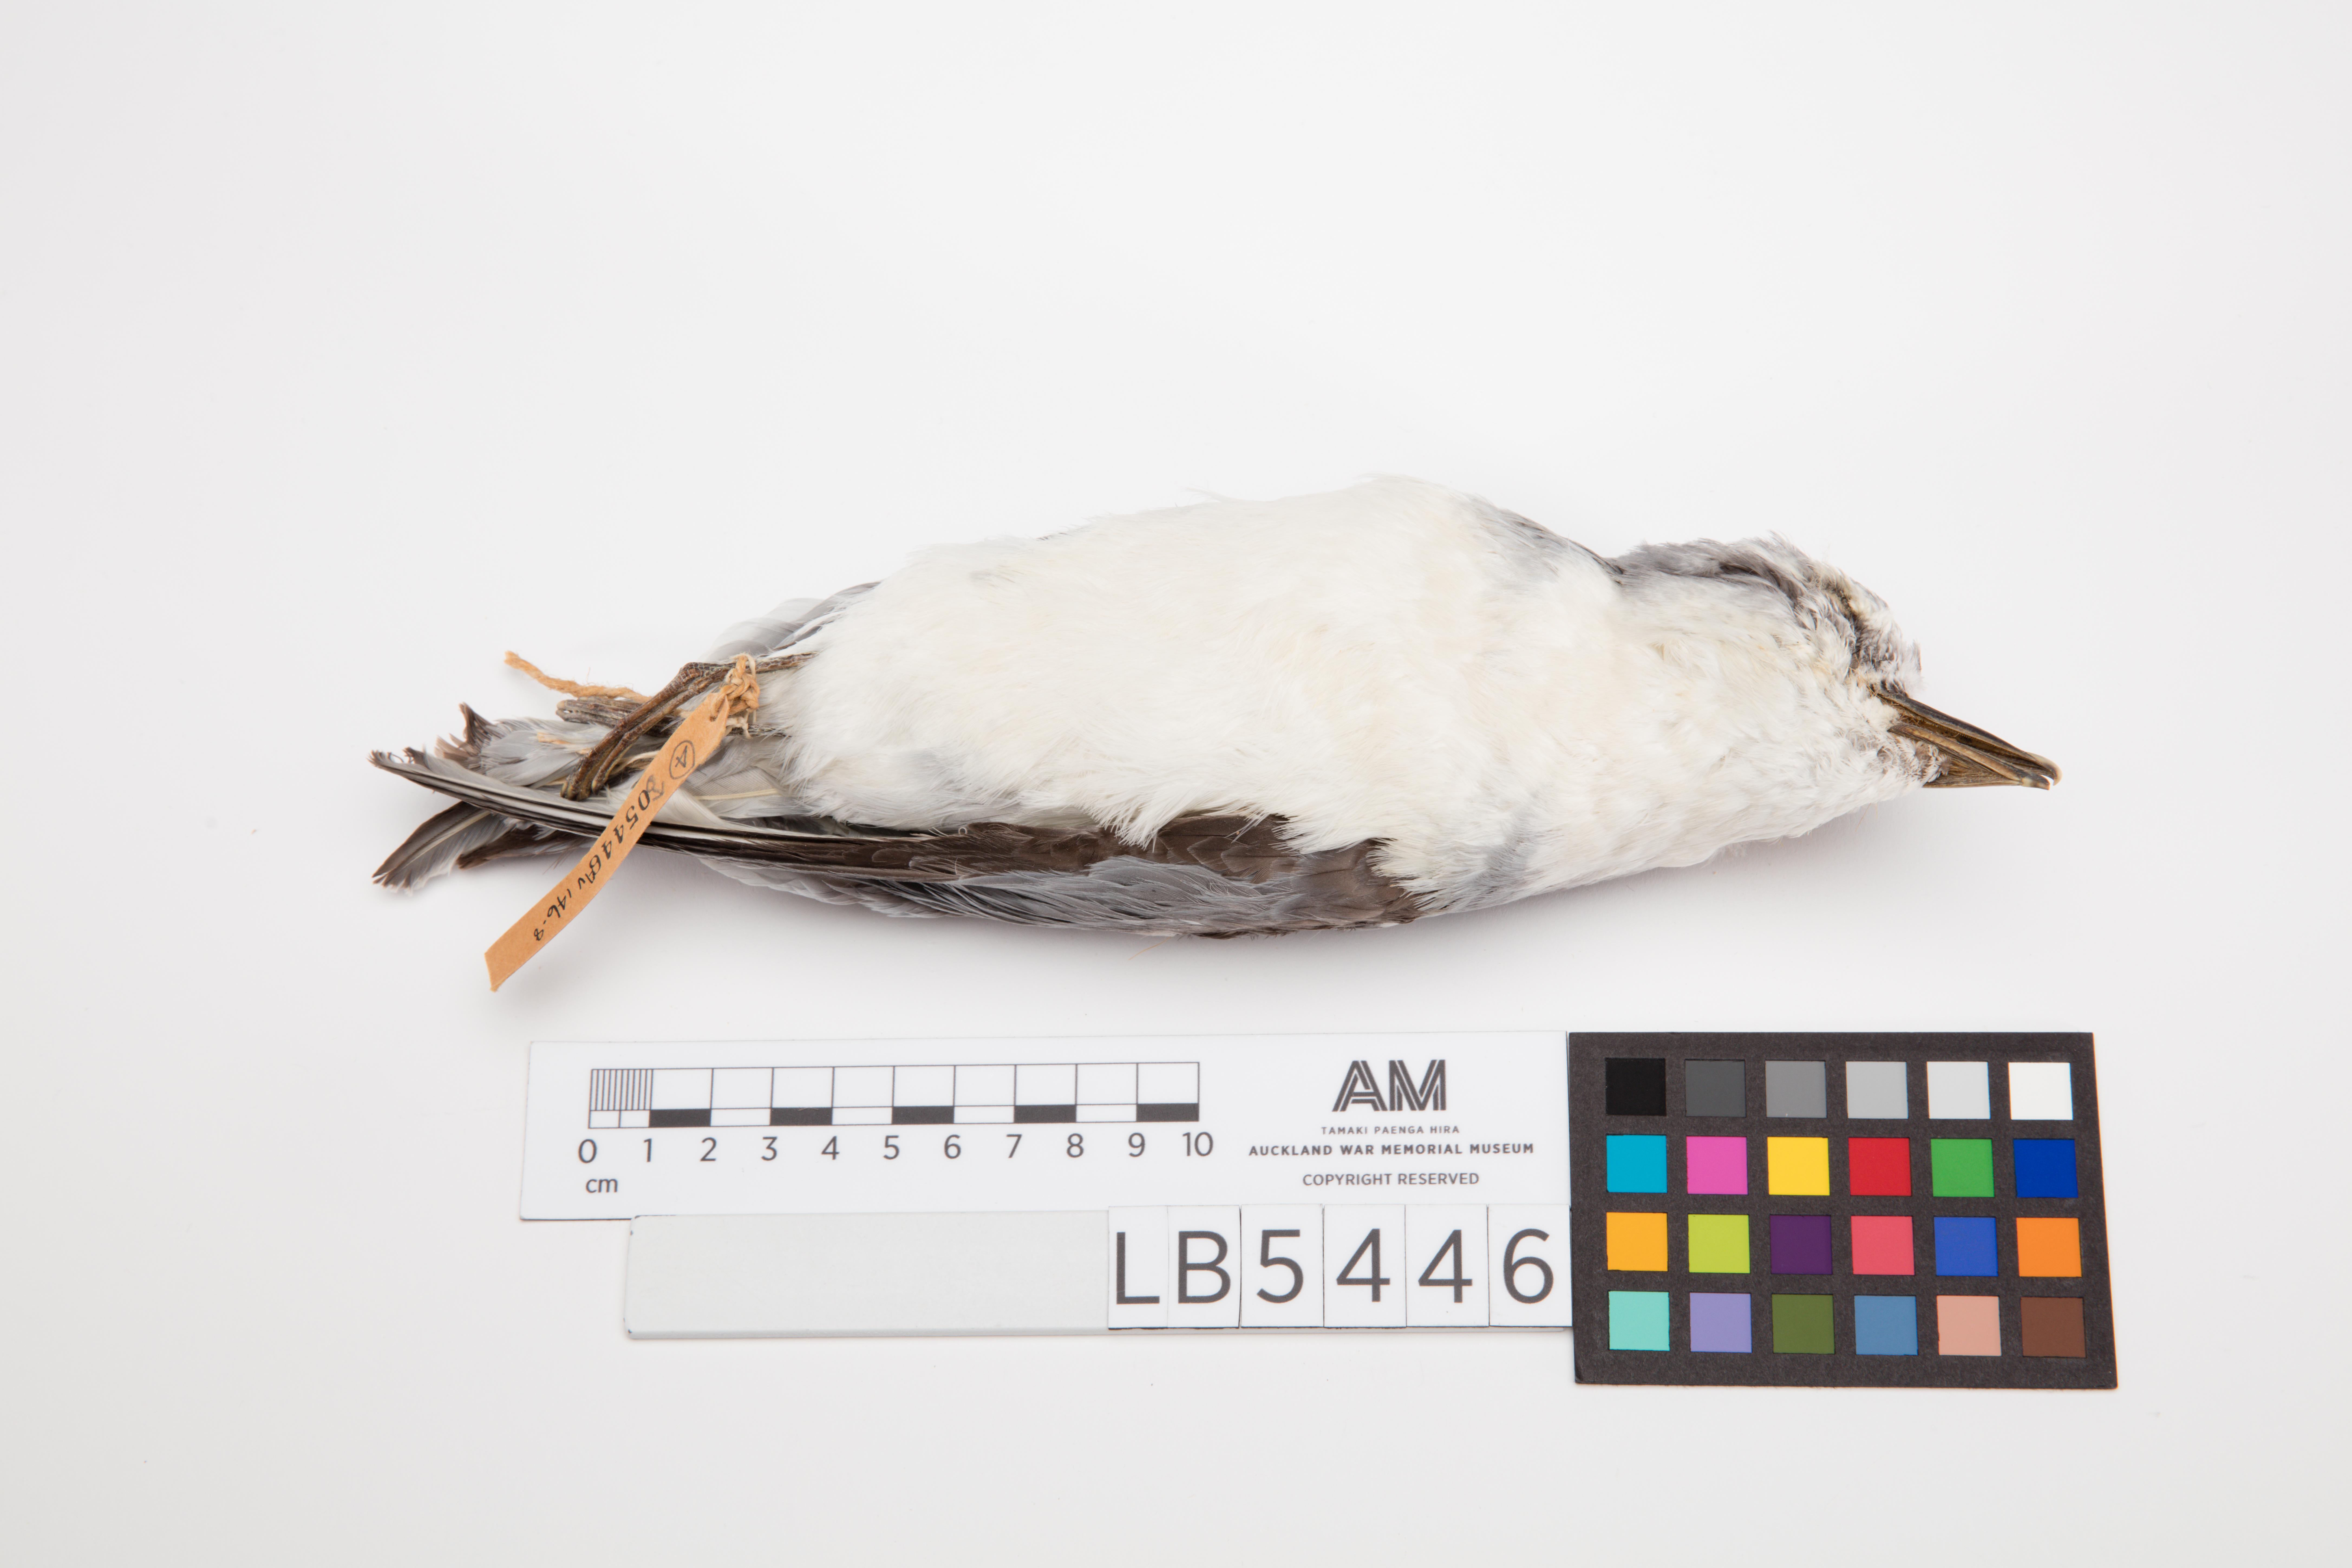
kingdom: Animalia
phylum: Chordata
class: Aves
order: Procellariiformes
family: Procellariidae
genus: Pachyptila
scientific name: Pachyptila salvini
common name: Salvin's prion
